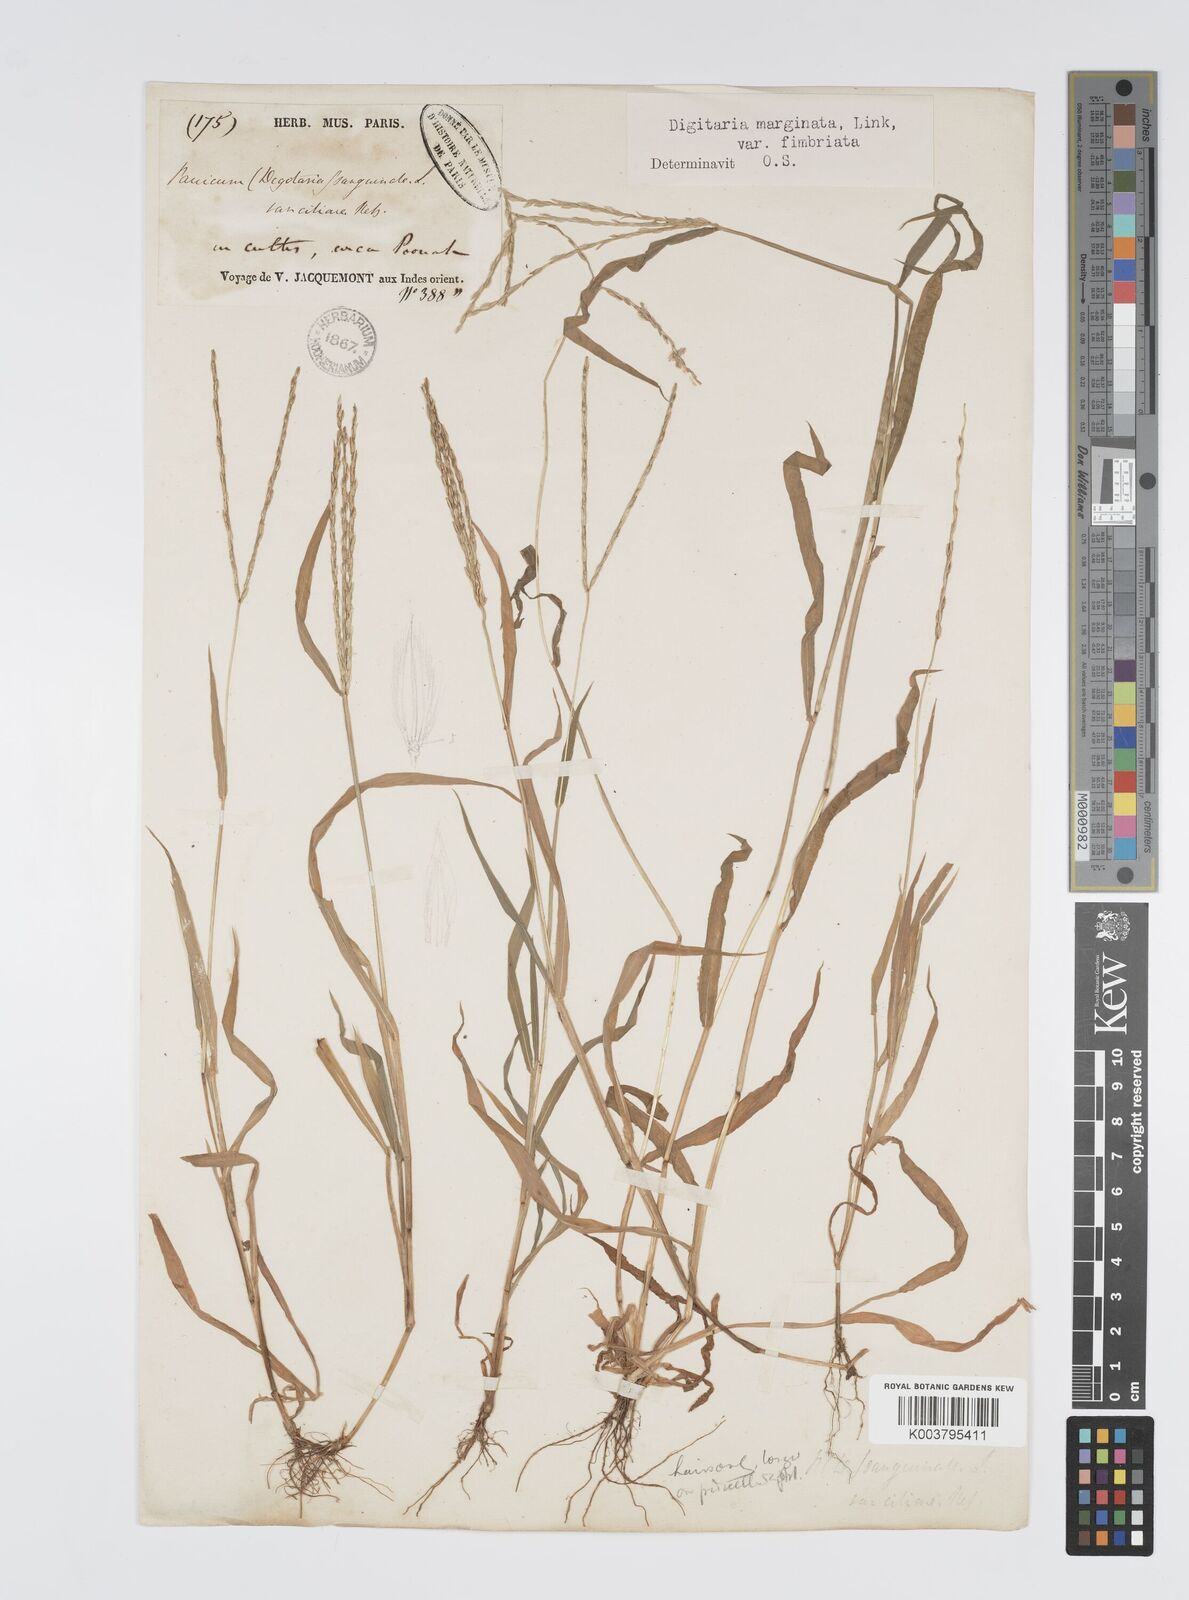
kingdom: Plantae
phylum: Tracheophyta
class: Liliopsida
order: Poales
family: Poaceae
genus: Digitaria
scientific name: Digitaria ciliaris
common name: Tropical finger-grass
